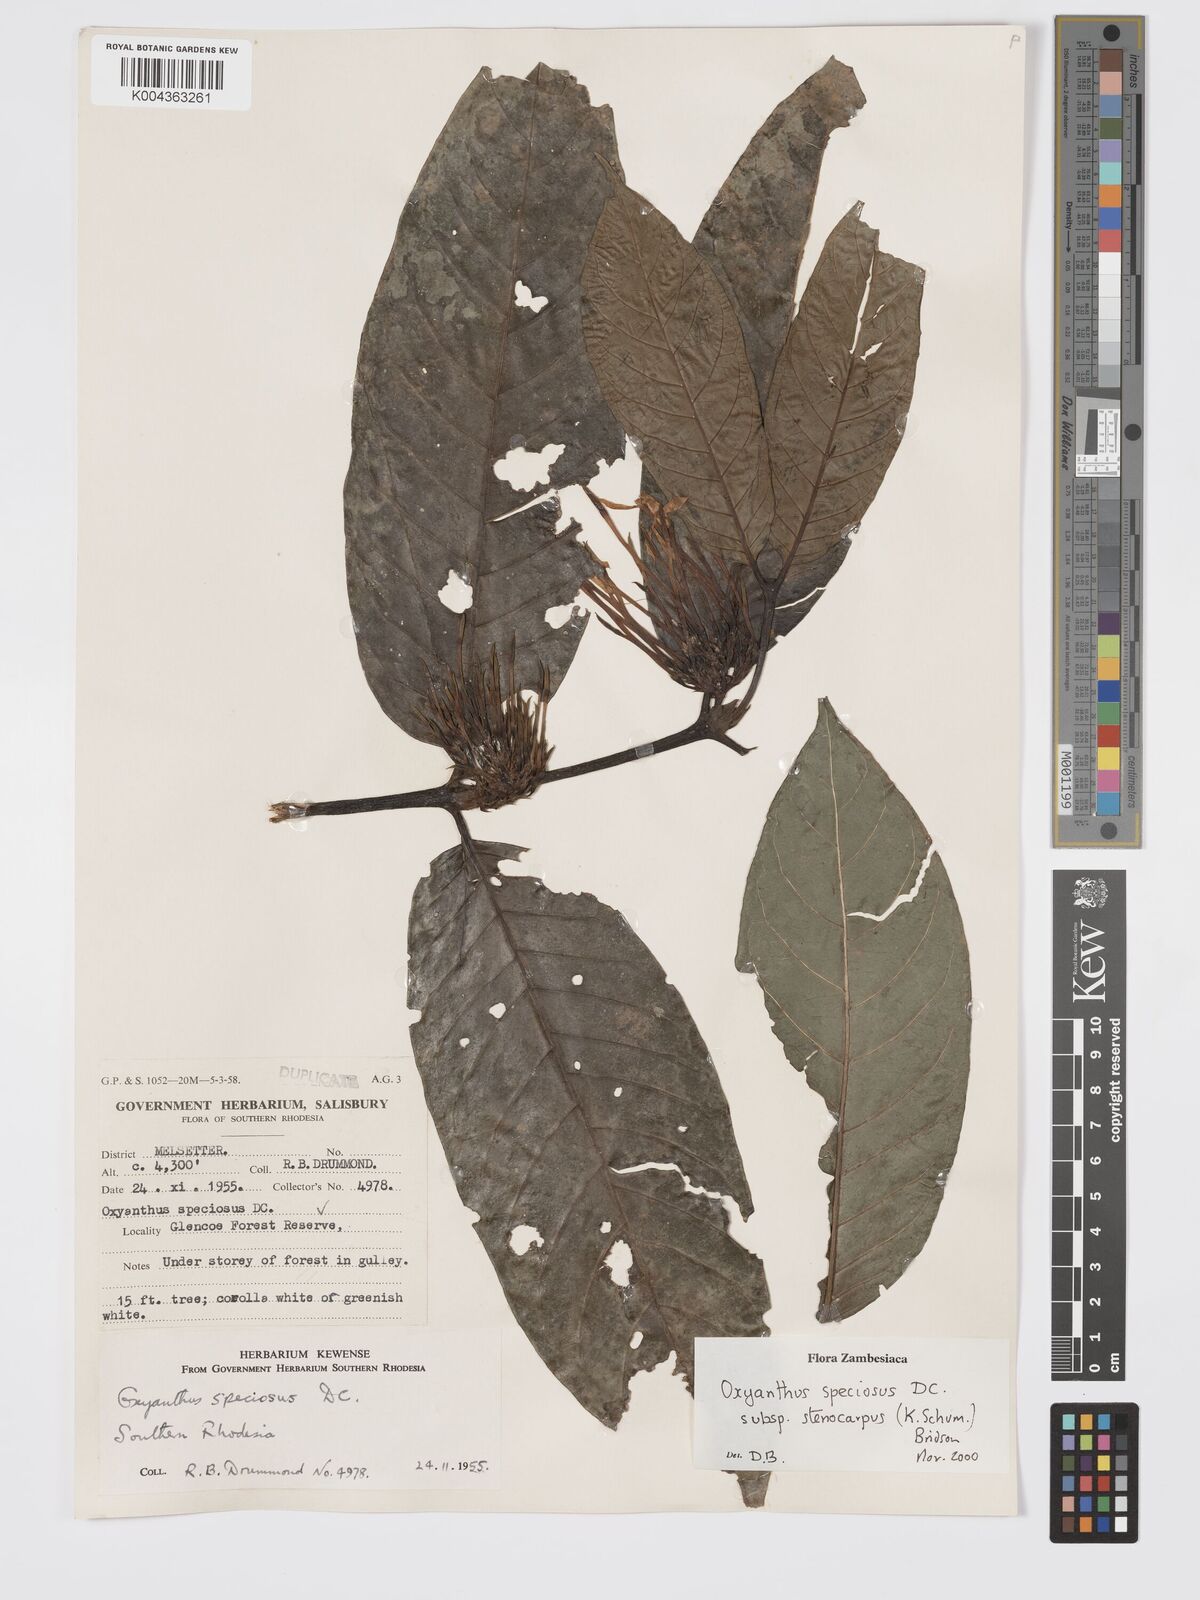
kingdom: Plantae
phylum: Tracheophyta
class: Magnoliopsida
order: Gentianales
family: Rubiaceae
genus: Oxyanthus
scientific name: Oxyanthus speciosus
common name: Whipstick loquat
